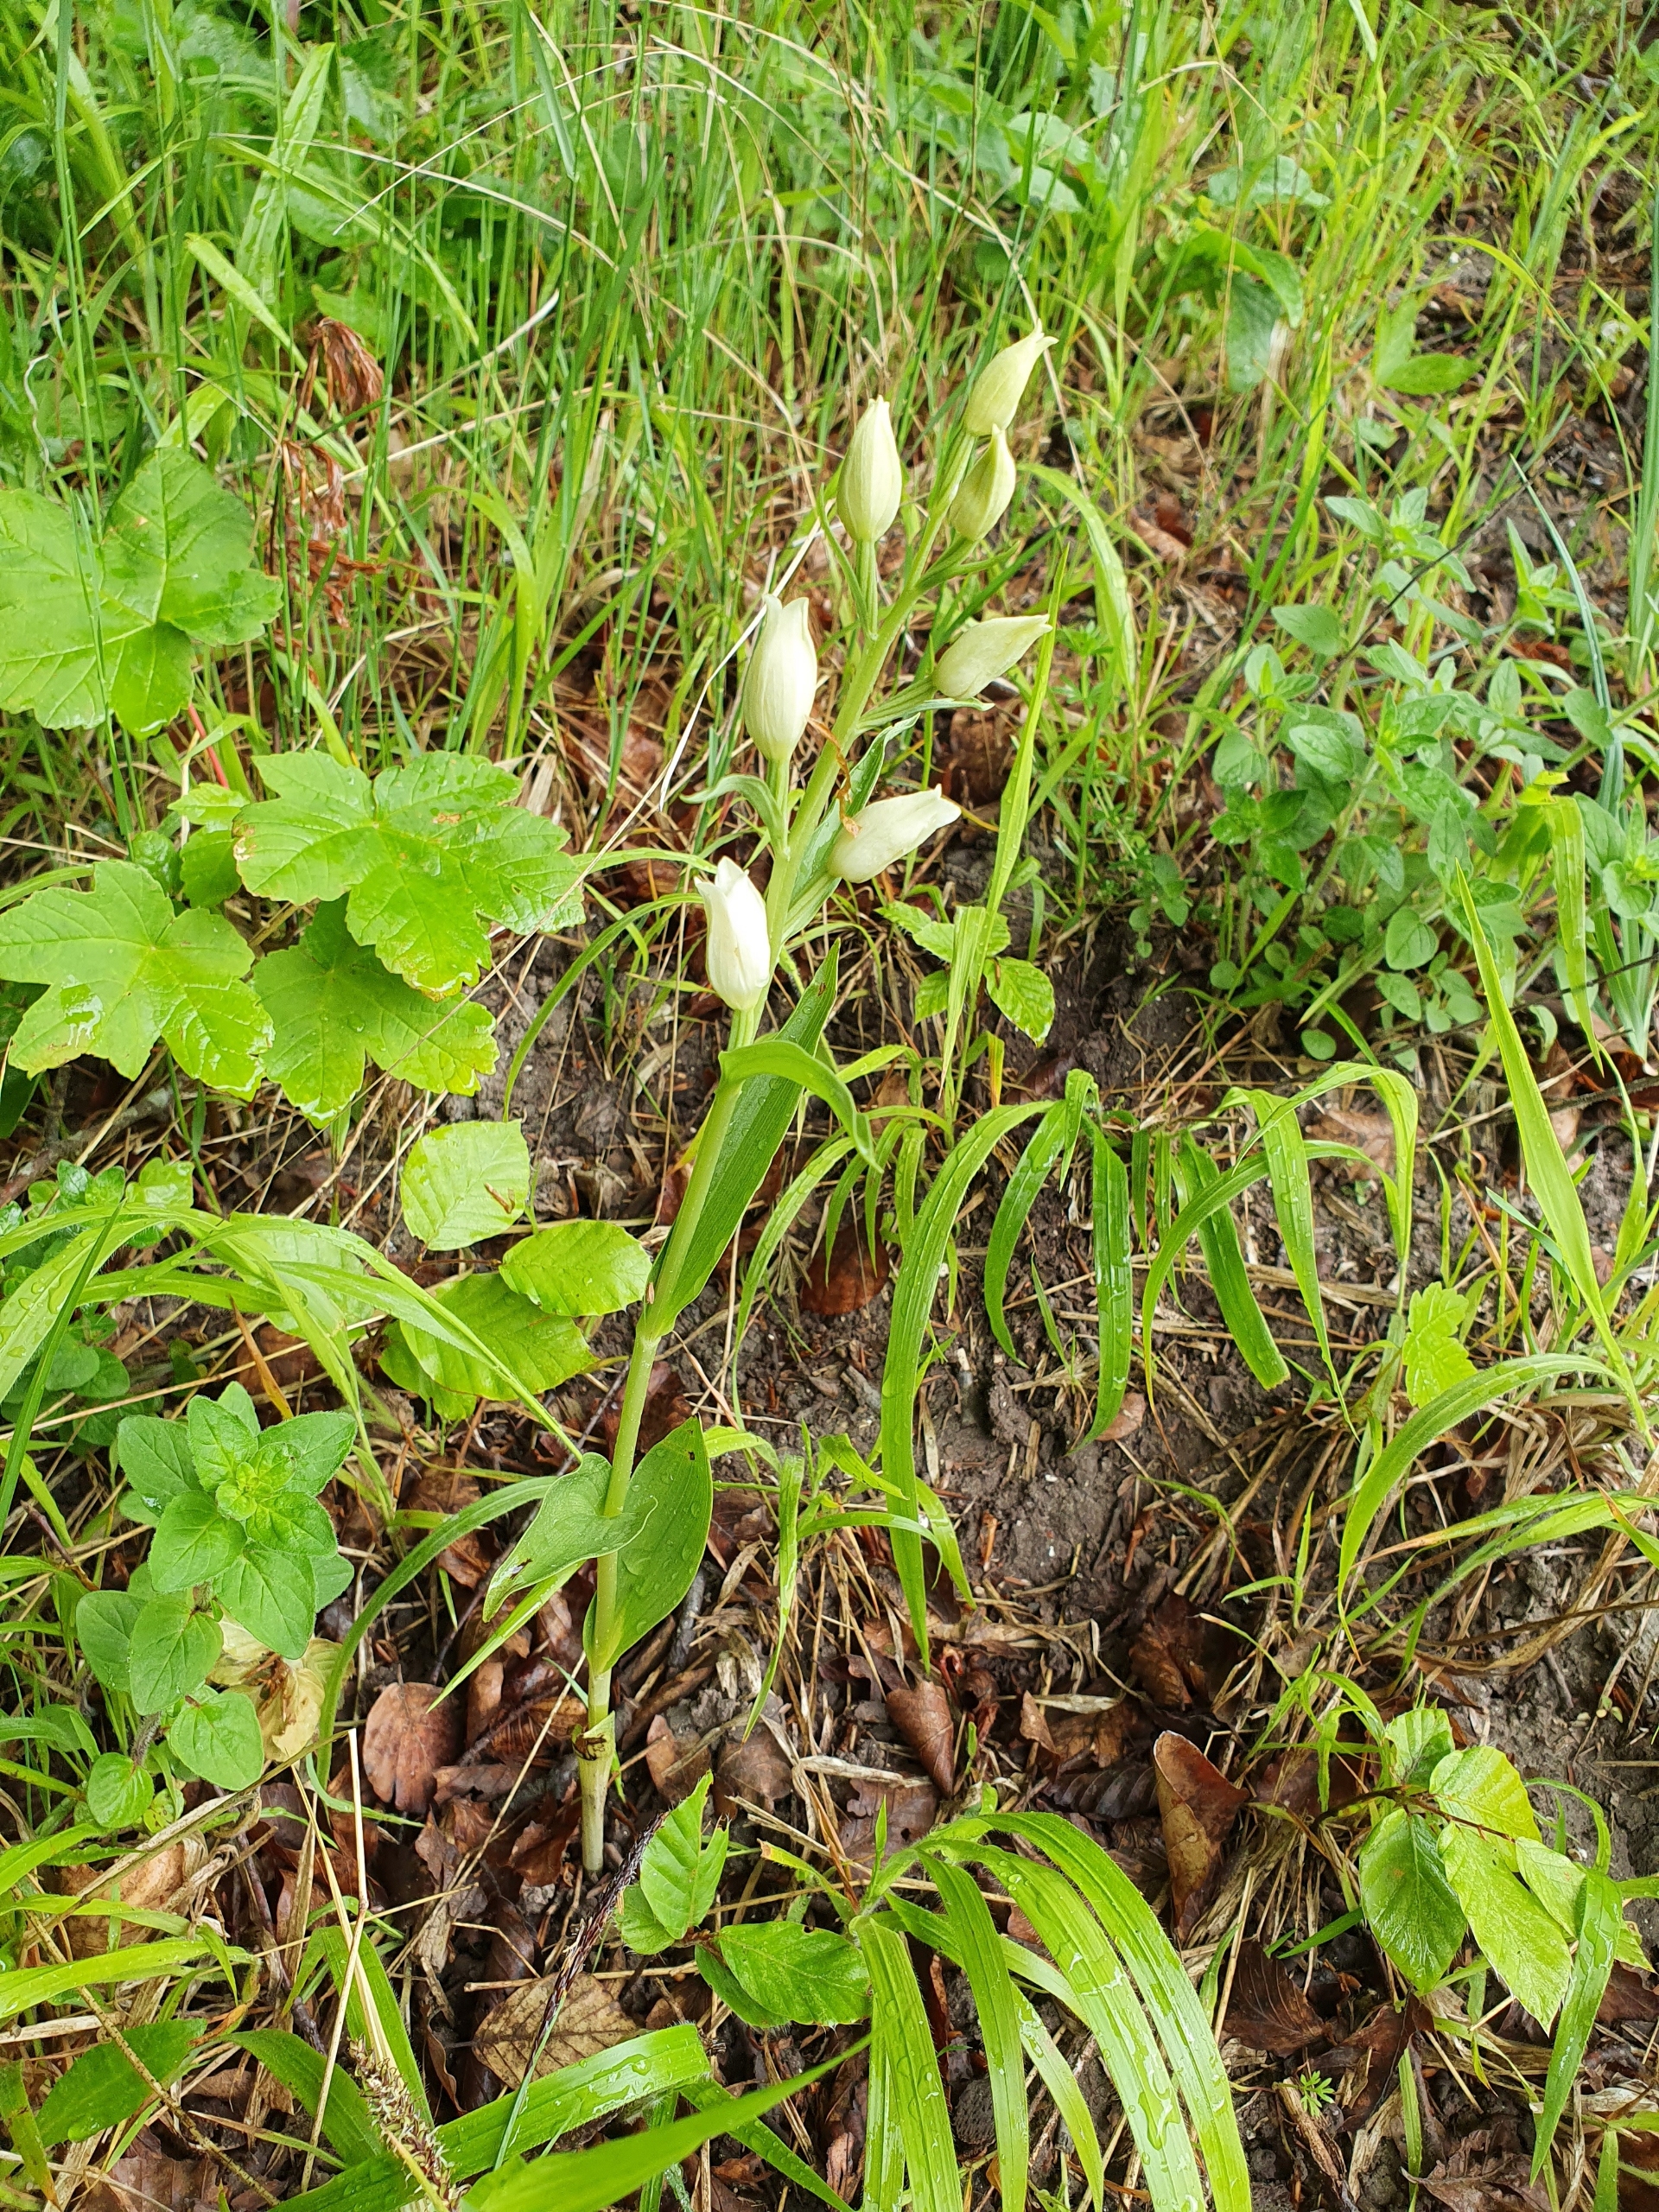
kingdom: Plantae
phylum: Tracheophyta
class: Liliopsida
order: Asparagales
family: Orchidaceae
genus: Cephalanthera
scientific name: Cephalanthera damasonium
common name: Hvidgul skovlilje
